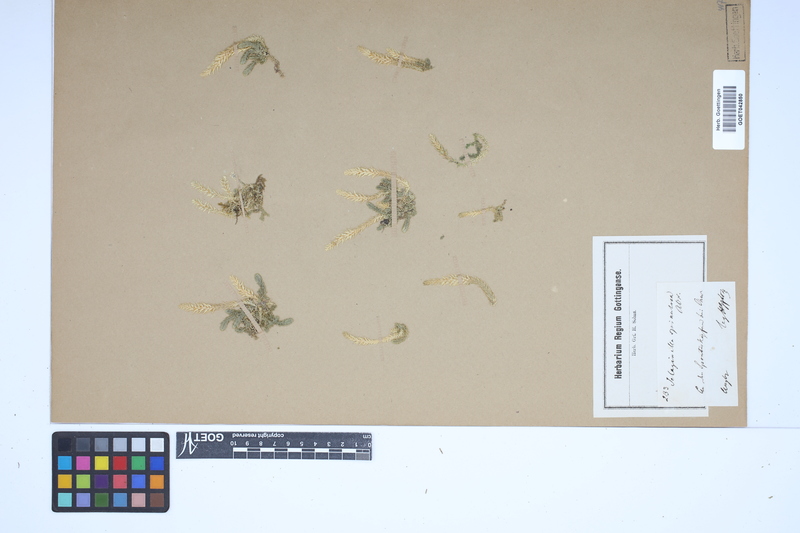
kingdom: Plantae
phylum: Tracheophyta
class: Lycopodiopsida
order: Selaginellales
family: Selaginellaceae
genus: Selaginella
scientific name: Selaginella selaginoides
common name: Prickly mountain-moss
